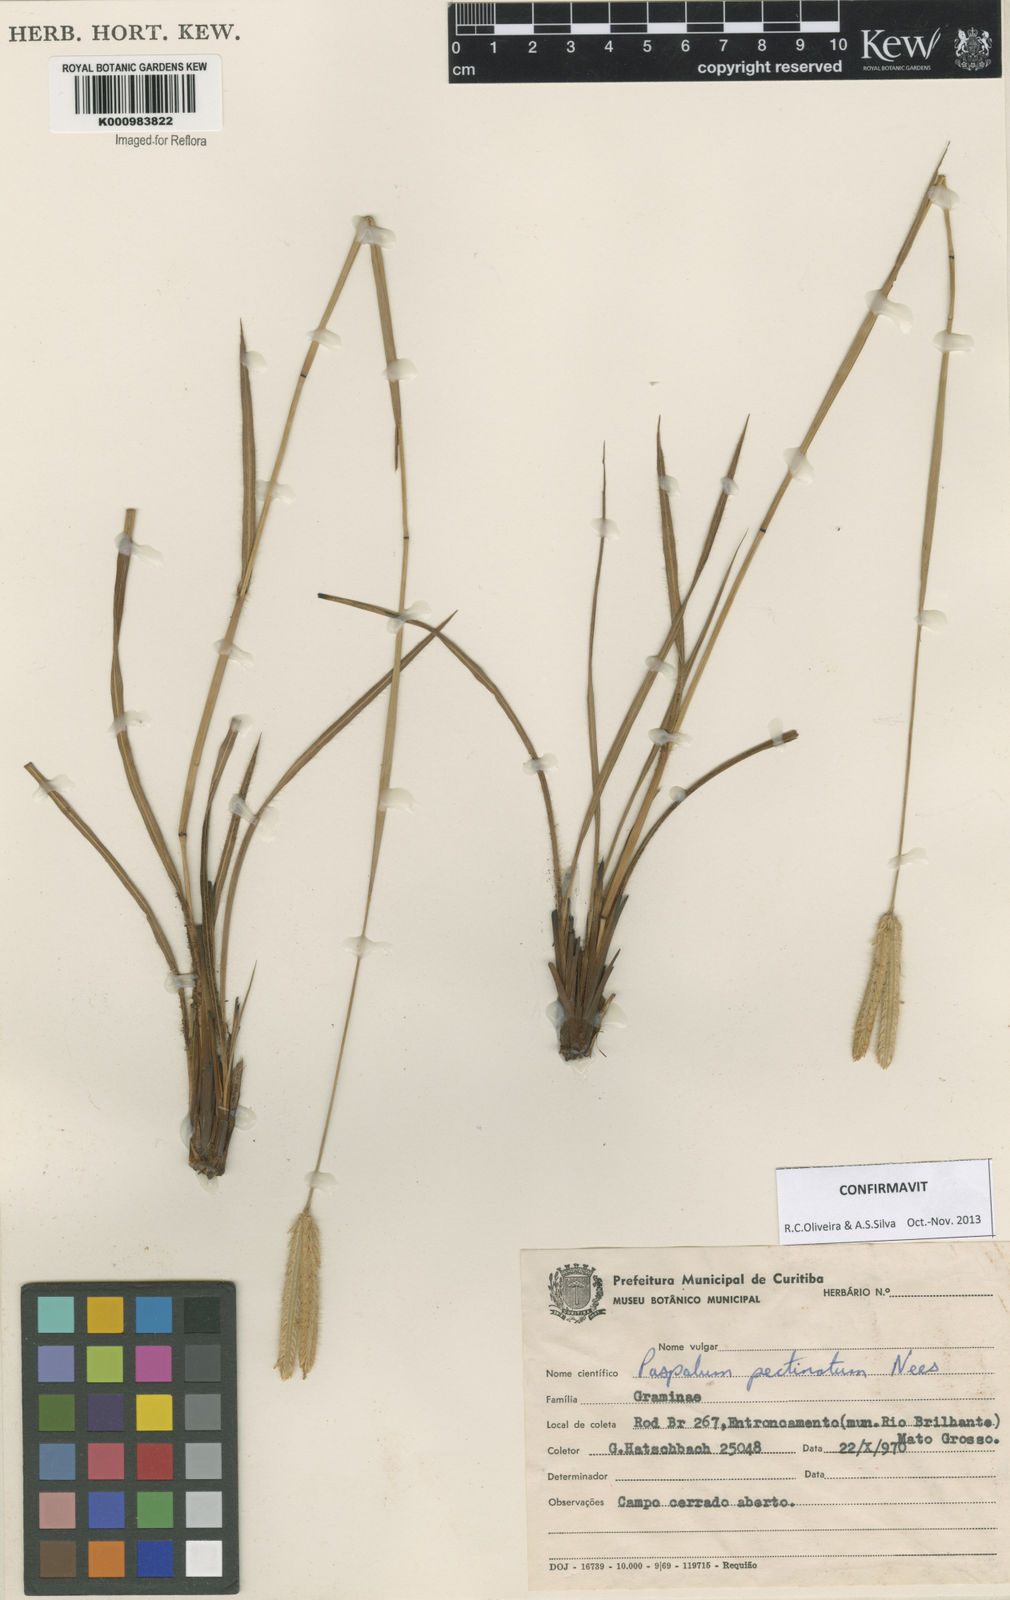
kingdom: Plantae
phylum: Tracheophyta
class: Liliopsida
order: Poales
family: Poaceae
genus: Paspalum
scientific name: Paspalum
